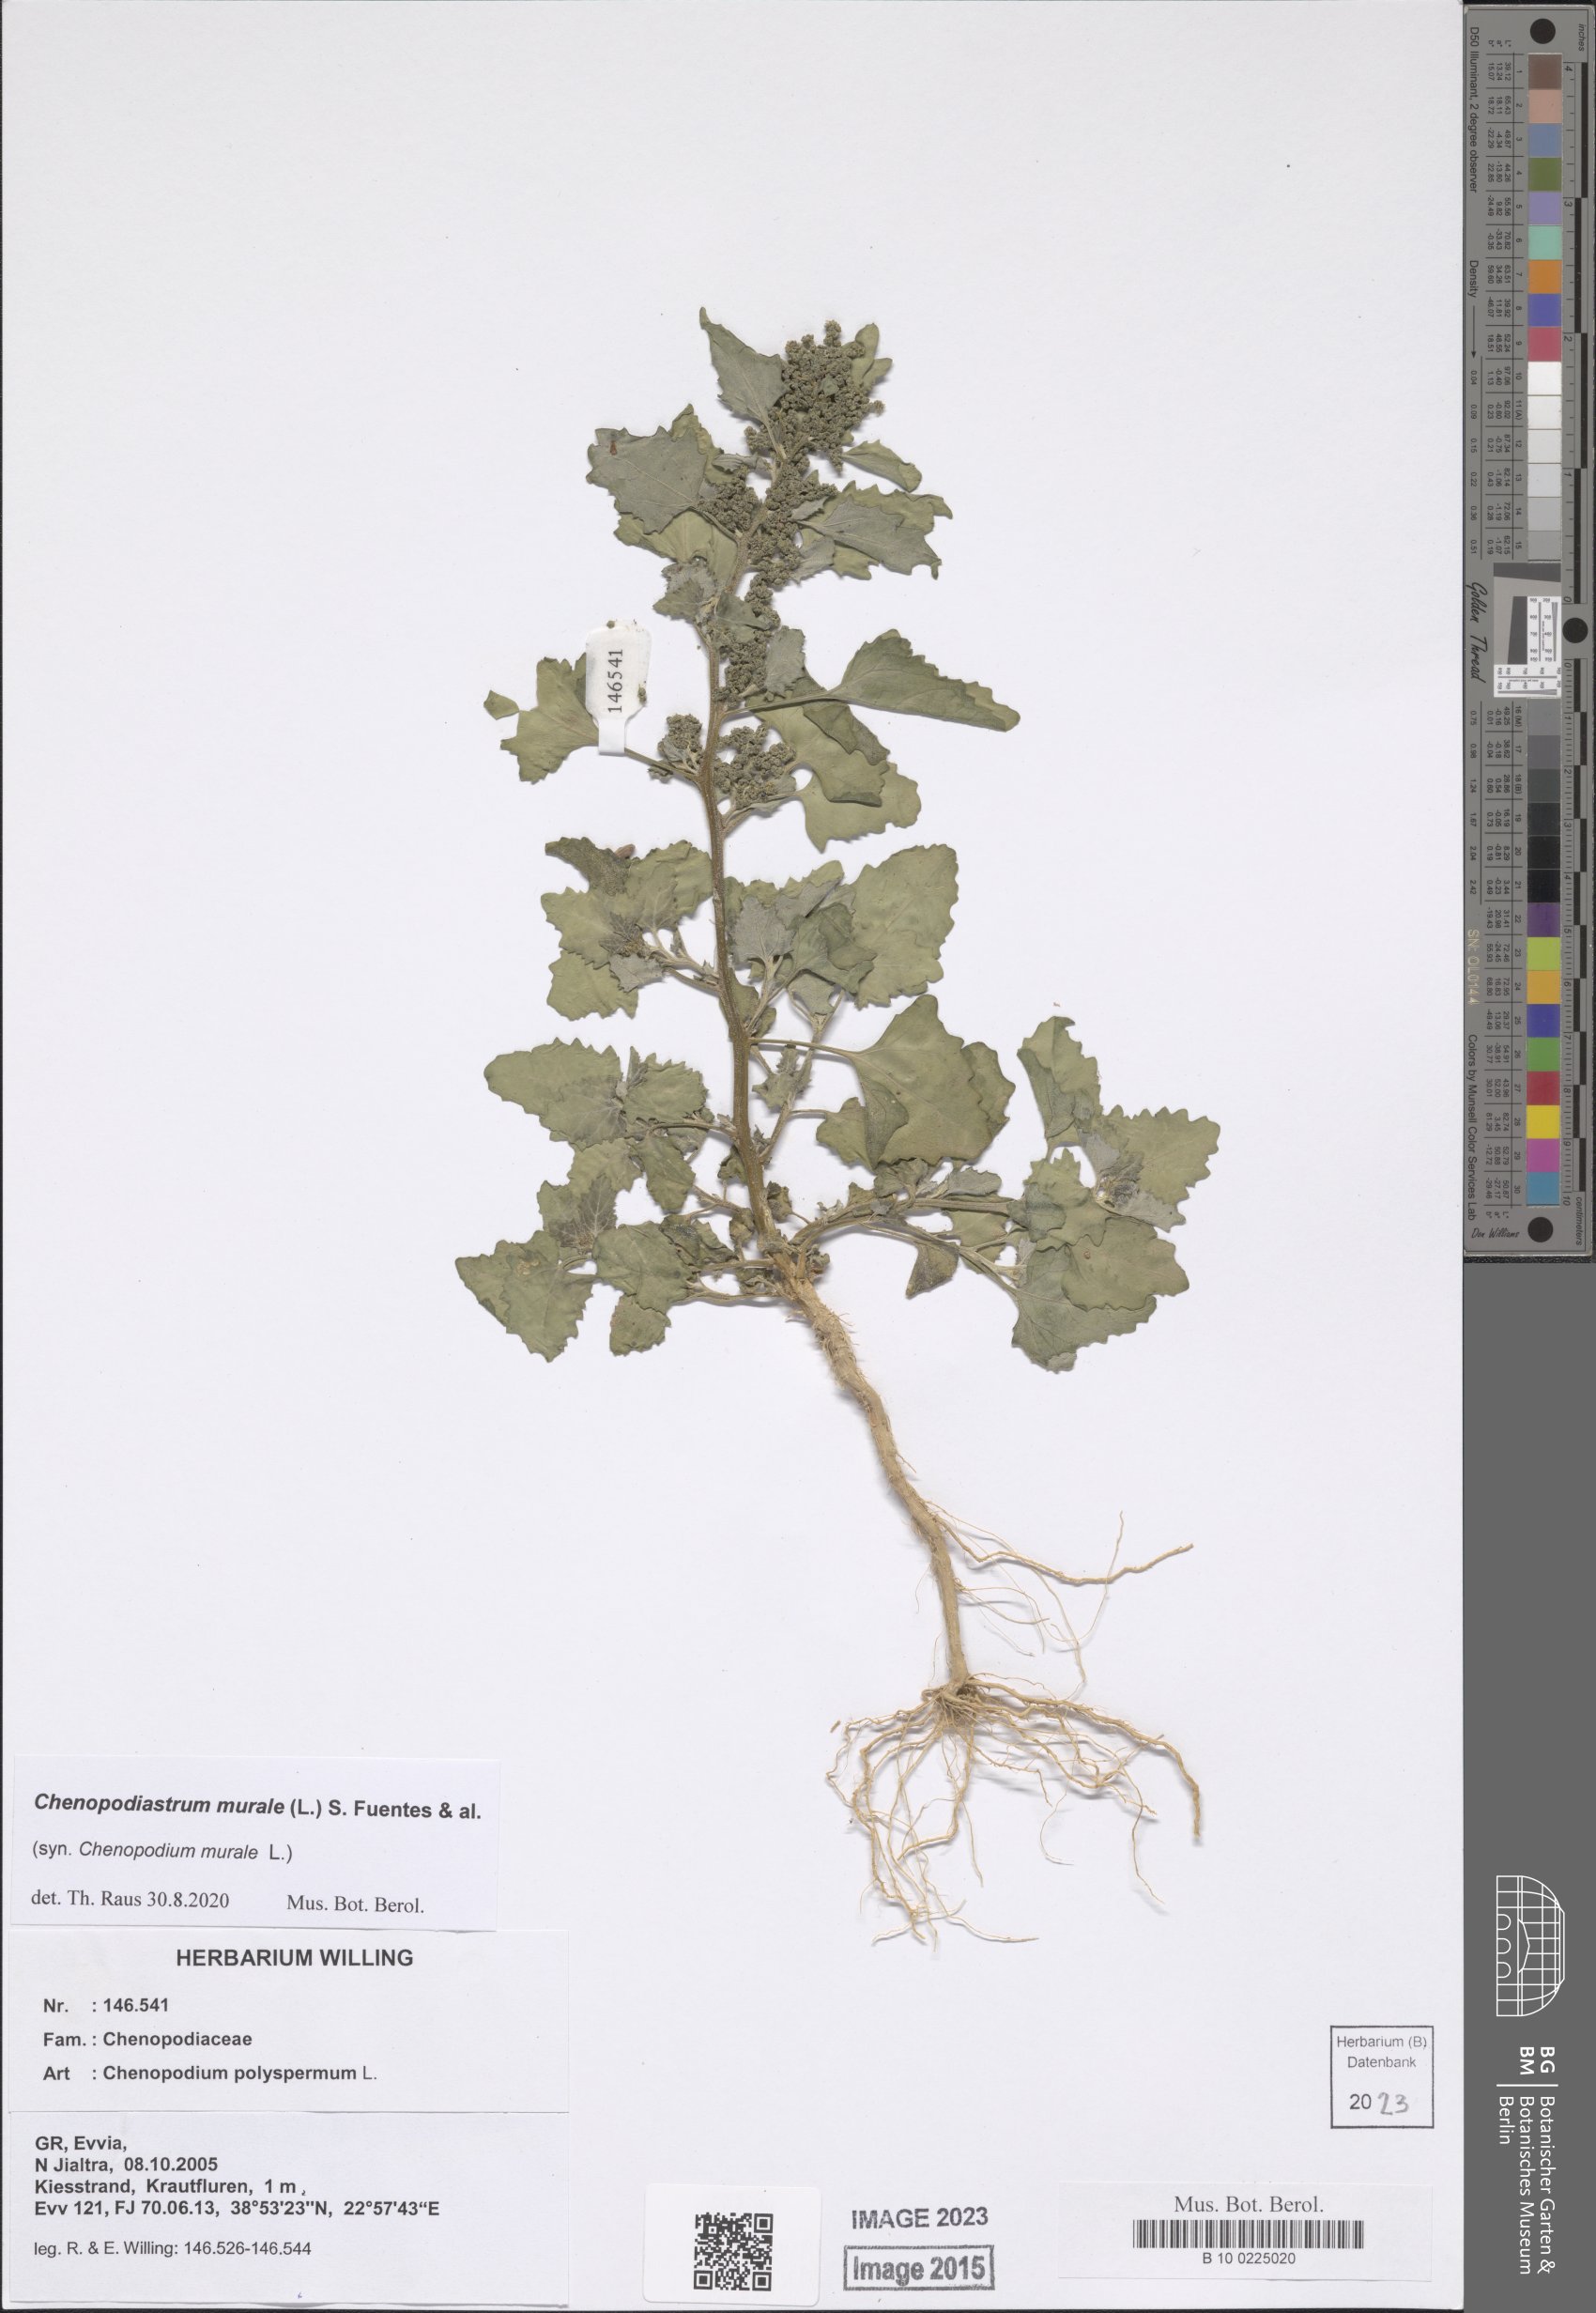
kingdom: Plantae
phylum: Tracheophyta
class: Magnoliopsida
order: Caryophyllales
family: Amaranthaceae
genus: Chenopodiastrum
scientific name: Chenopodiastrum murale
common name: Sowbane
